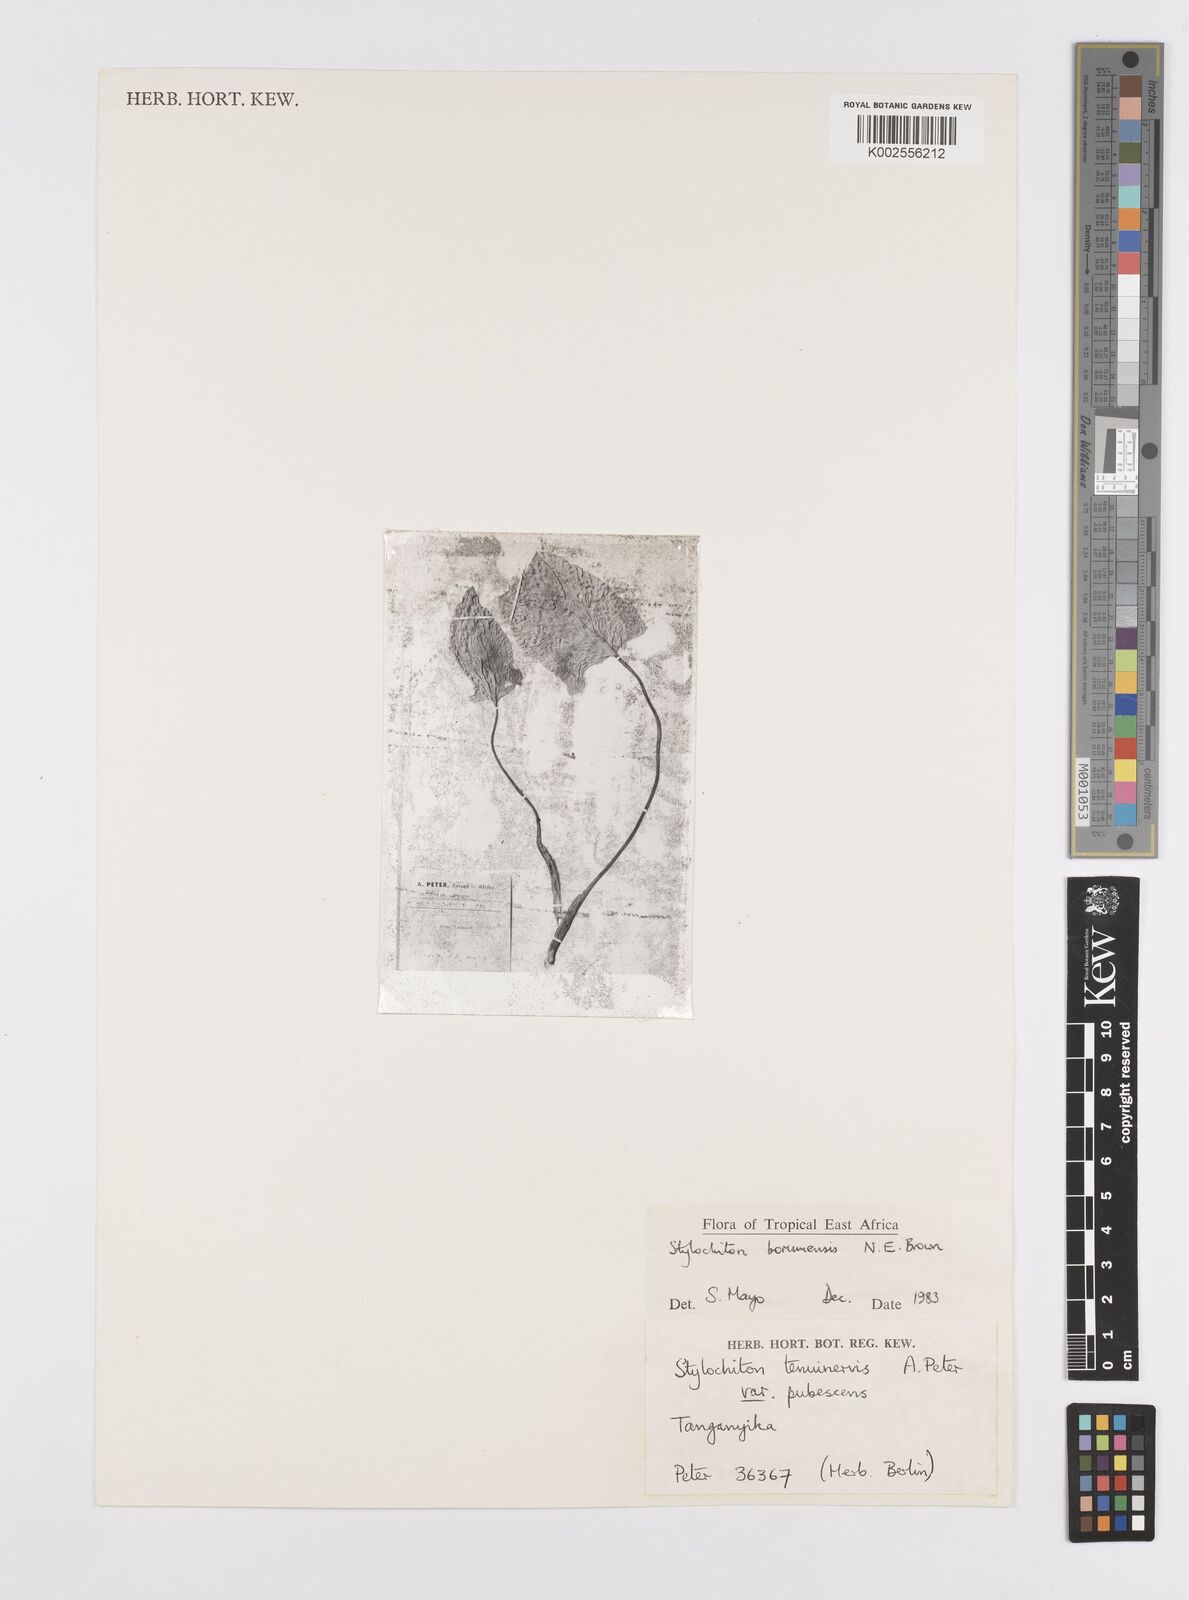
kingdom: Plantae
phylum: Tracheophyta
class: Liliopsida
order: Alismatales
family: Araceae
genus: Stylochaeton
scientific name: Stylochaeton borumense
